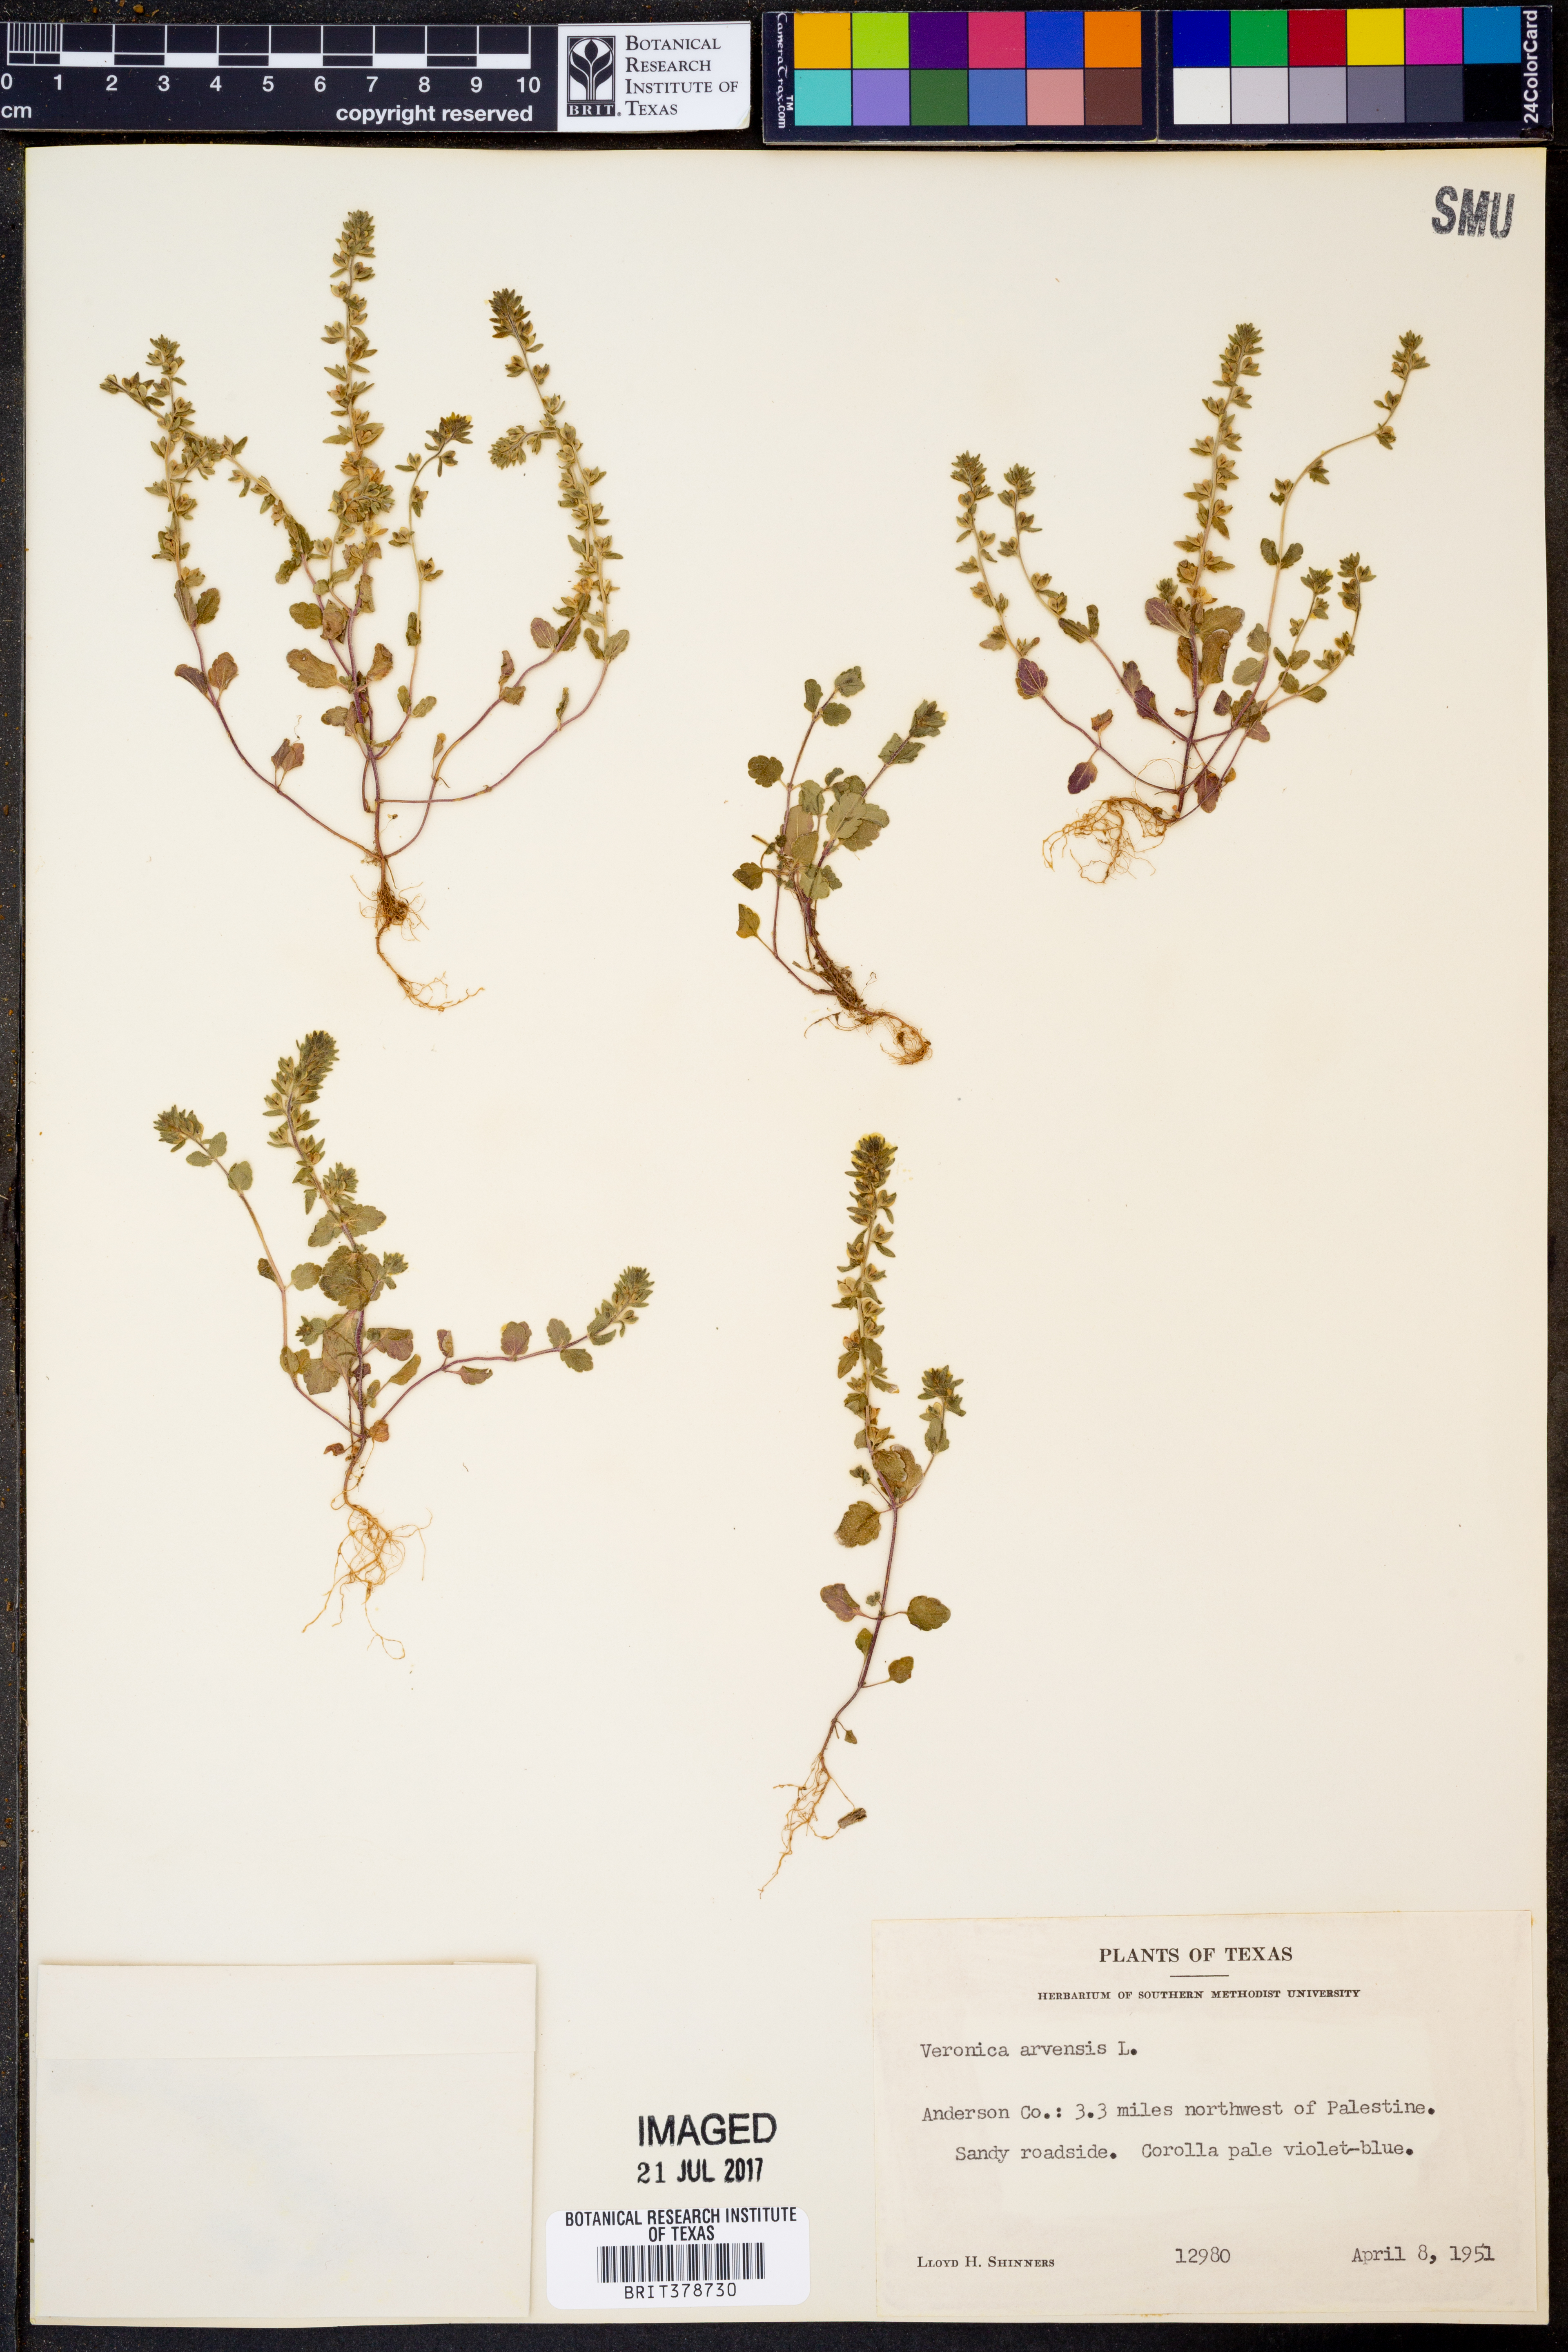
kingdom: Plantae
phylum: Tracheophyta
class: Magnoliopsida
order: Lamiales
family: Plantaginaceae
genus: Veronica
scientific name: Veronica arvensis
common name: Corn speedwell
